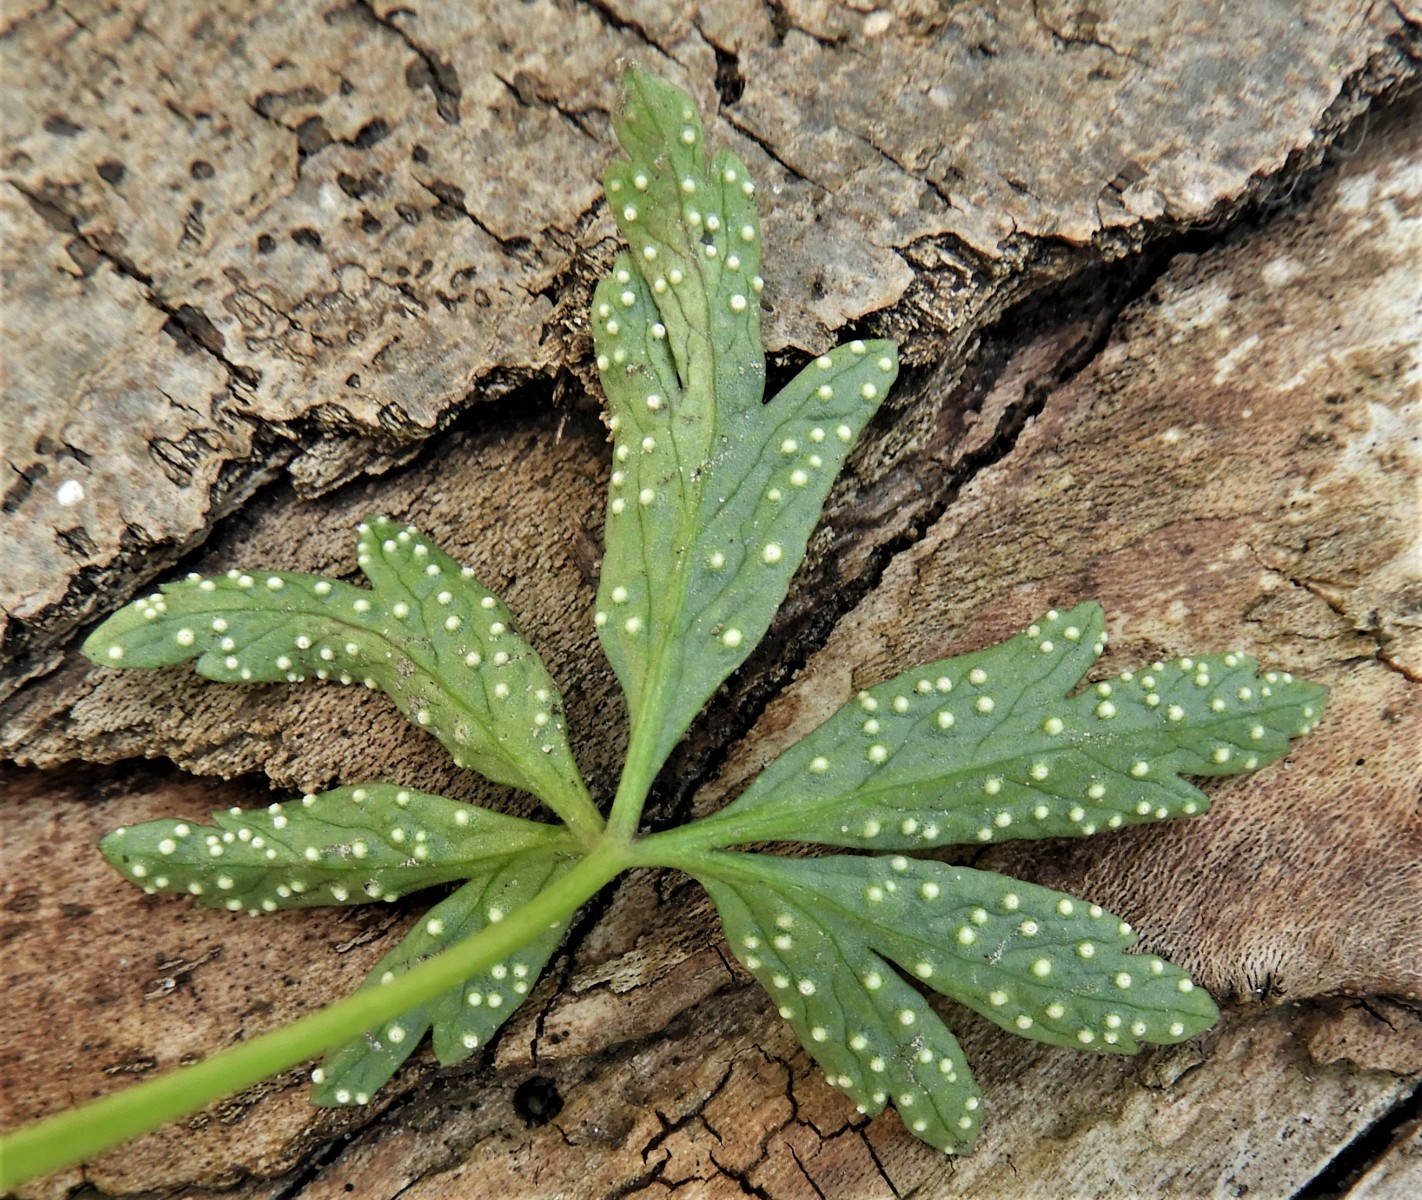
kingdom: Fungi
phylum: Basidiomycota
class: Pucciniomycetes
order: Pucciniales
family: Ochropsoraceae
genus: Ochropsora
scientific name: Ochropsora ariae
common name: anemone-okkerpletrust
